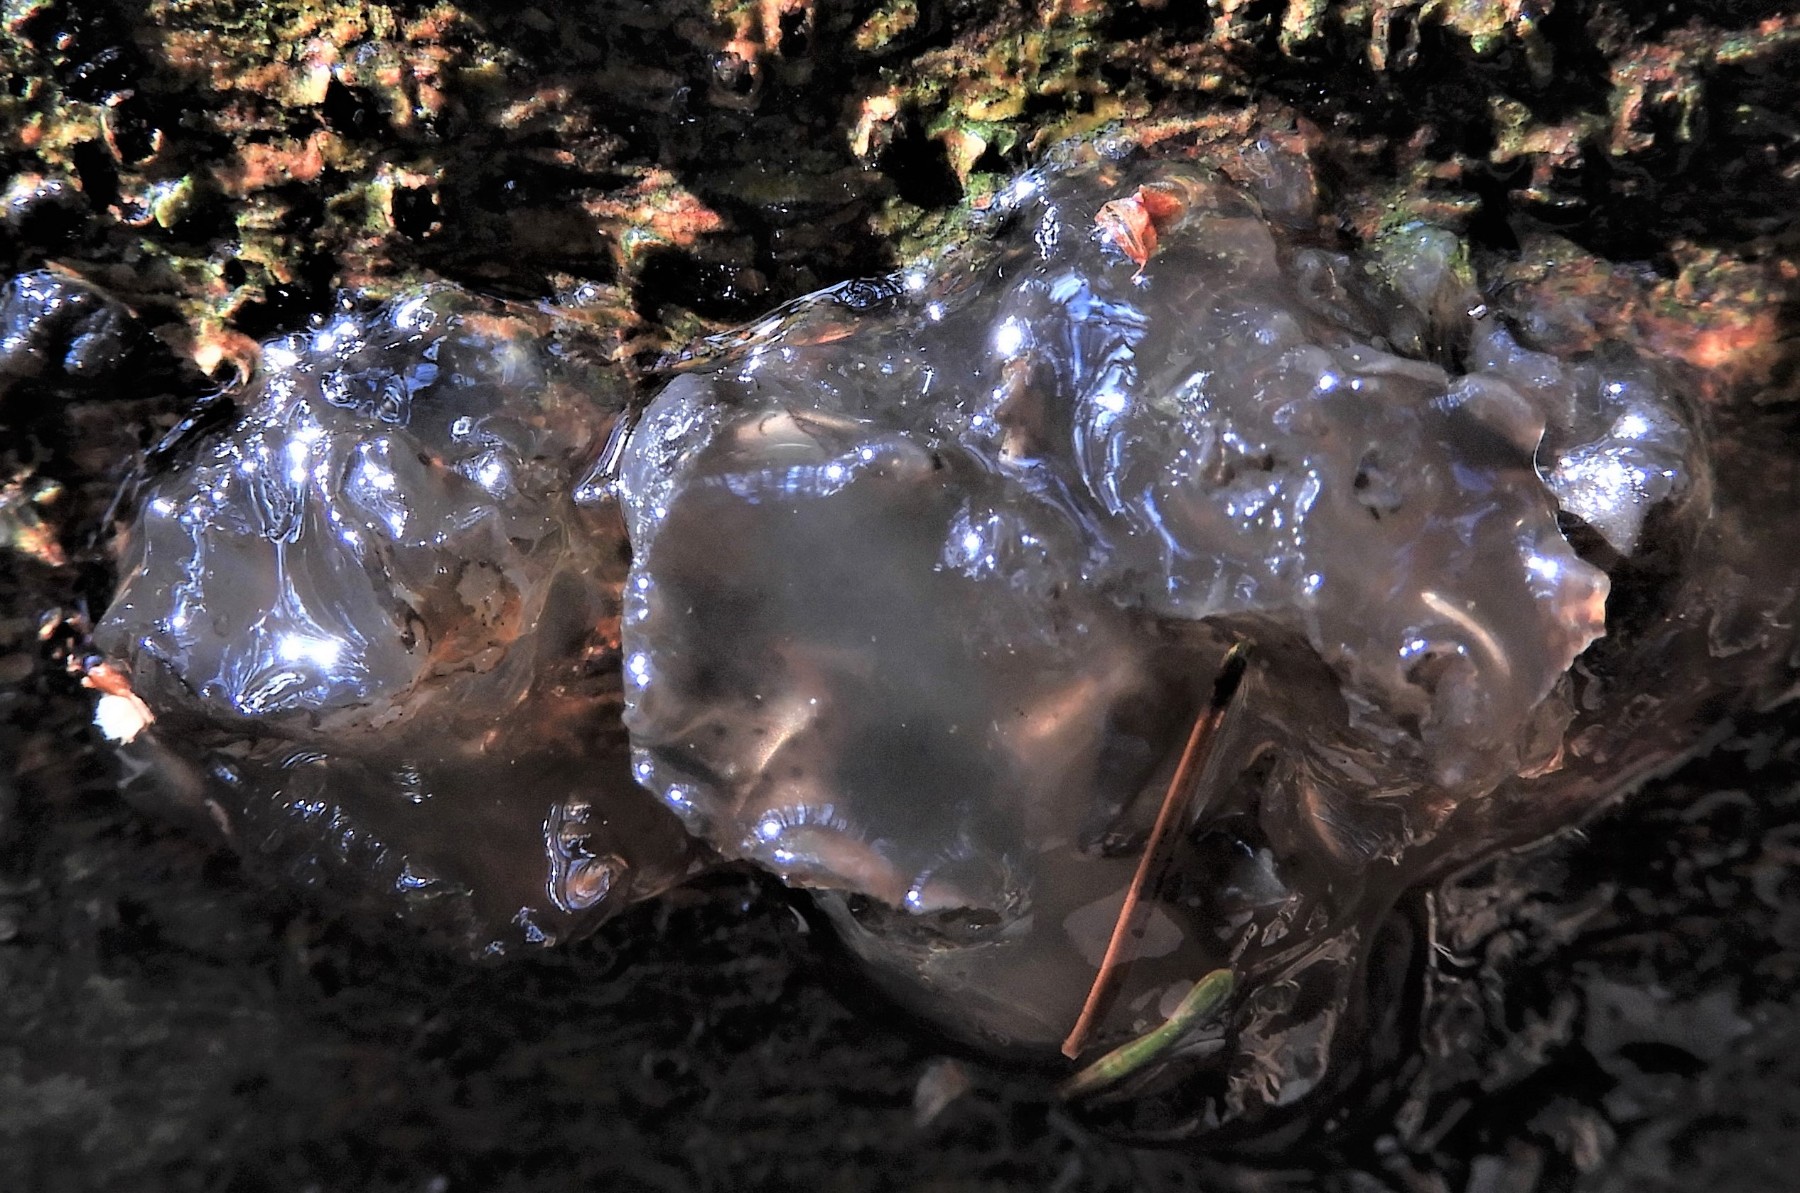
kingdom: Fungi
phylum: Basidiomycota
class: Agaricomycetes
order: Auriculariales
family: Hyaloriaceae
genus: Myxarium
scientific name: Myxarium nucleatum
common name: klar bævretop
